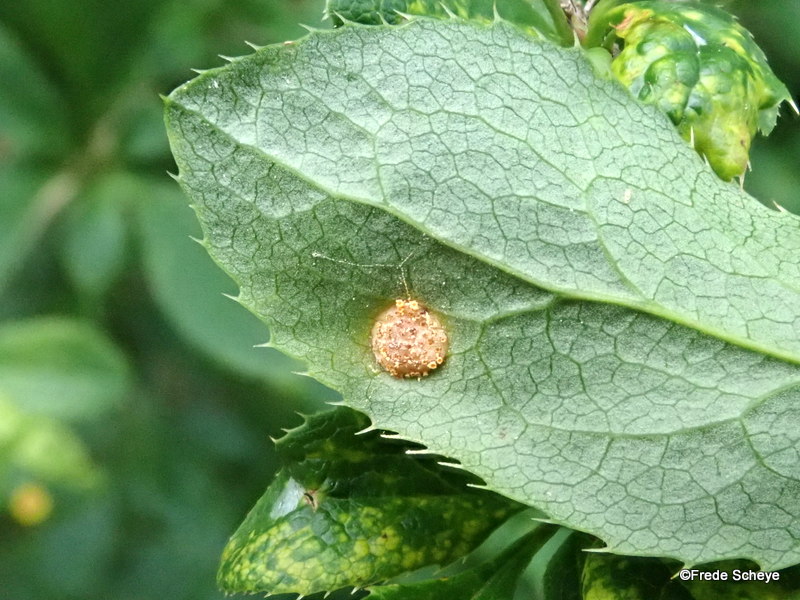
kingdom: Fungi
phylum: Basidiomycota
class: Pucciniomycetes
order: Pucciniales
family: Pucciniaceae
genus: Puccinia
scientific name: Puccinia graminis
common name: græssernes tvecellerust
